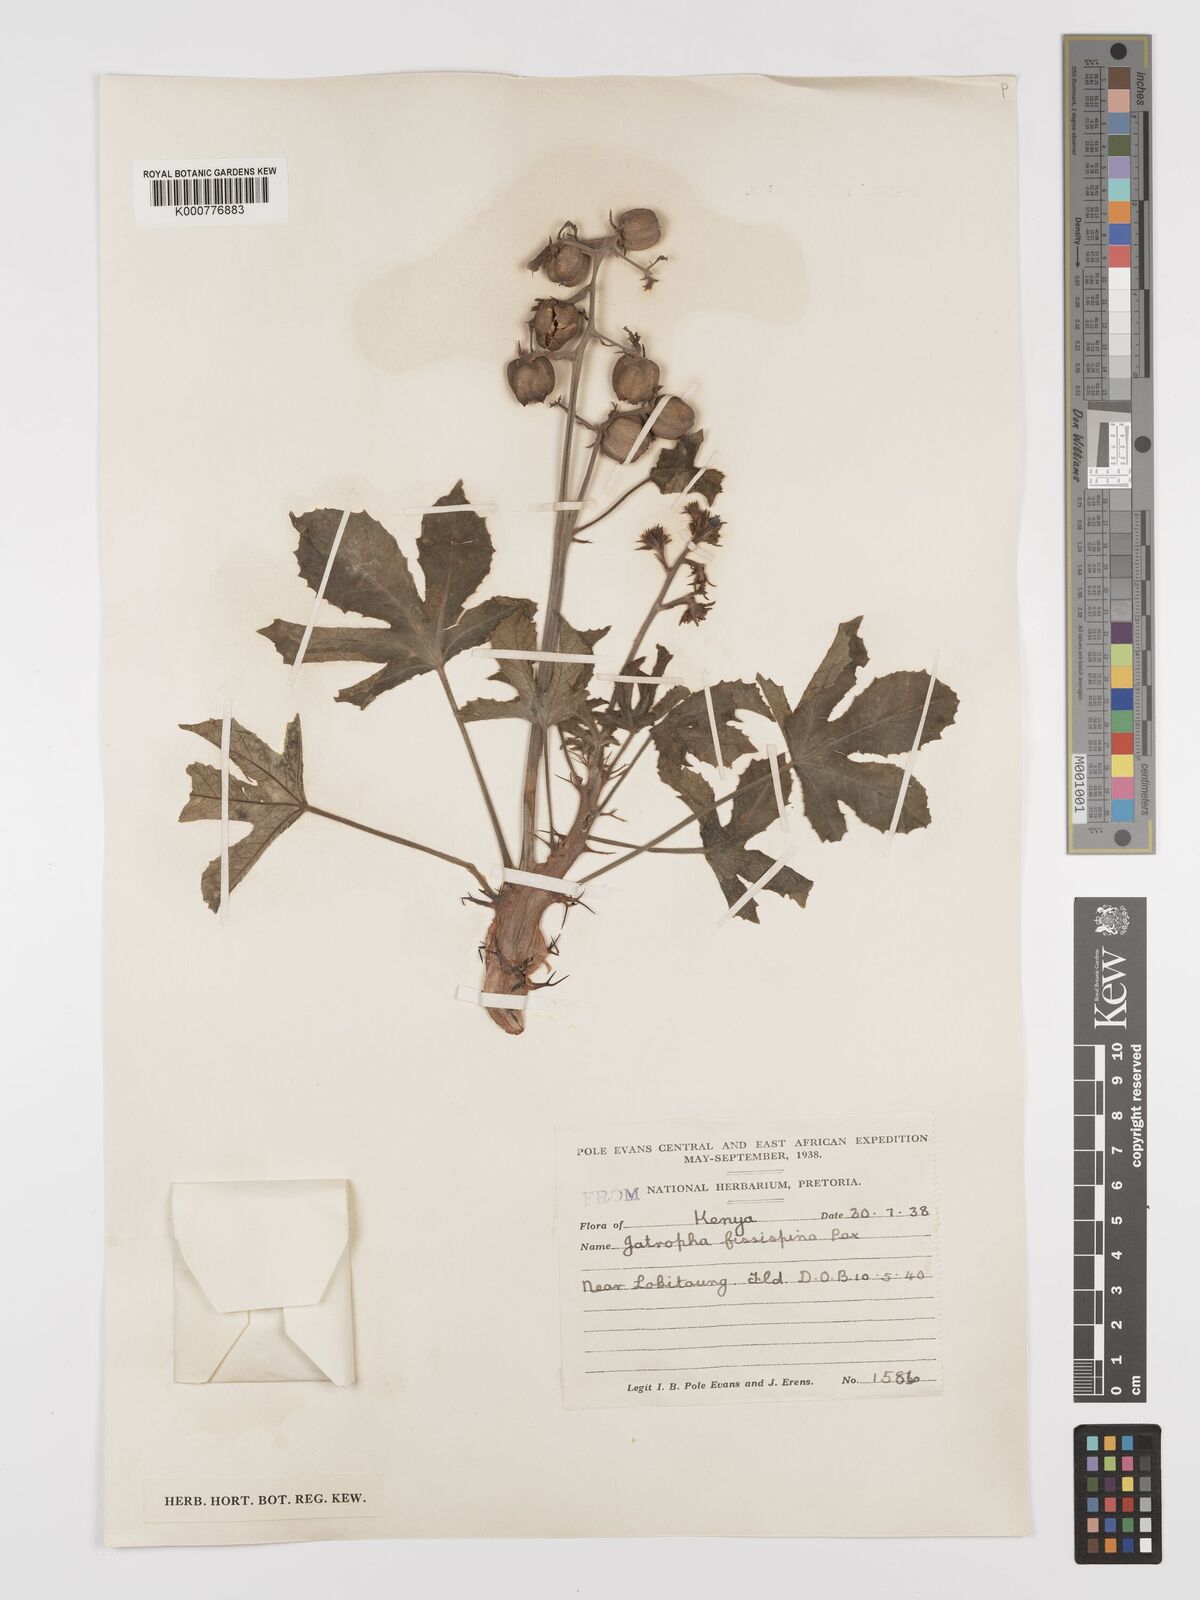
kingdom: Plantae
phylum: Tracheophyta
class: Magnoliopsida
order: Malpighiales
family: Euphorbiaceae
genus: Jatropha
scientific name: Jatropha ellenbeckii
